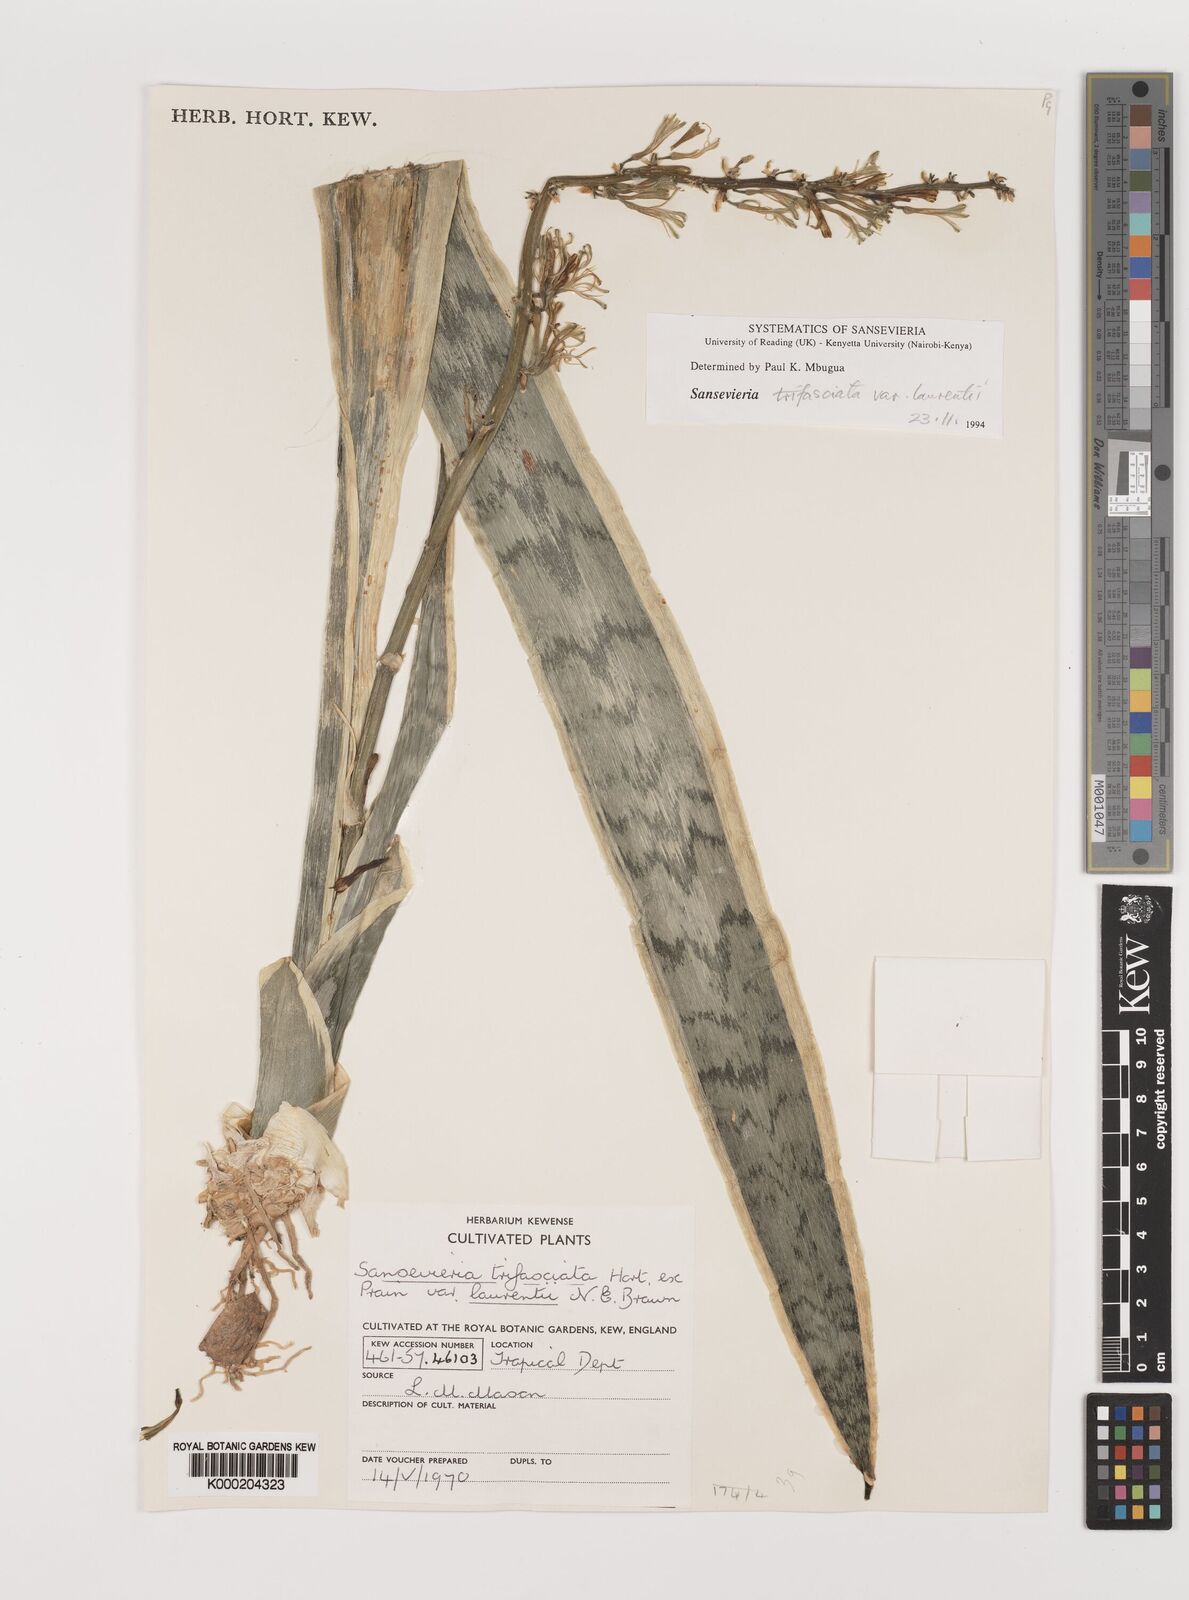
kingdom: Plantae
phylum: Tracheophyta
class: Liliopsida
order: Asparagales
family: Asparagaceae
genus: Dracaena
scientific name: Dracaena trifasciata
